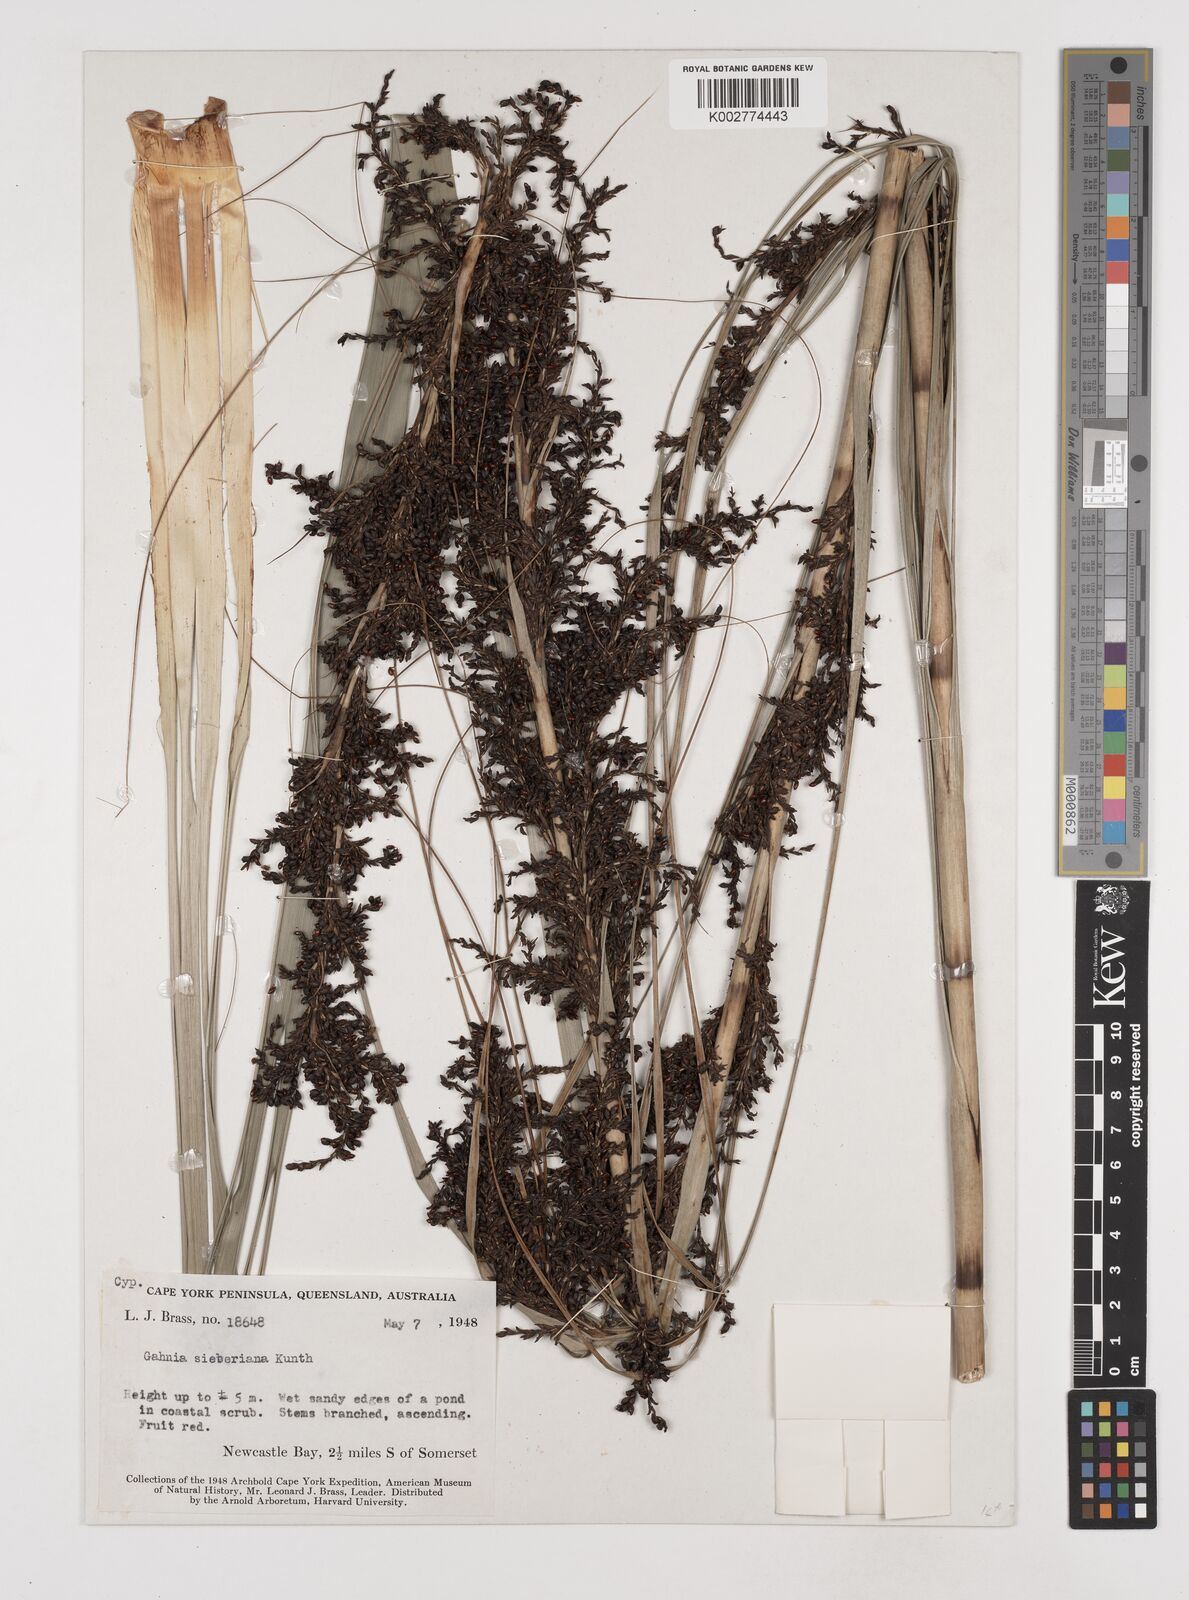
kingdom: Plantae
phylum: Tracheophyta
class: Liliopsida
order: Poales
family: Cyperaceae
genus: Gahnia
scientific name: Gahnia sieberiana
